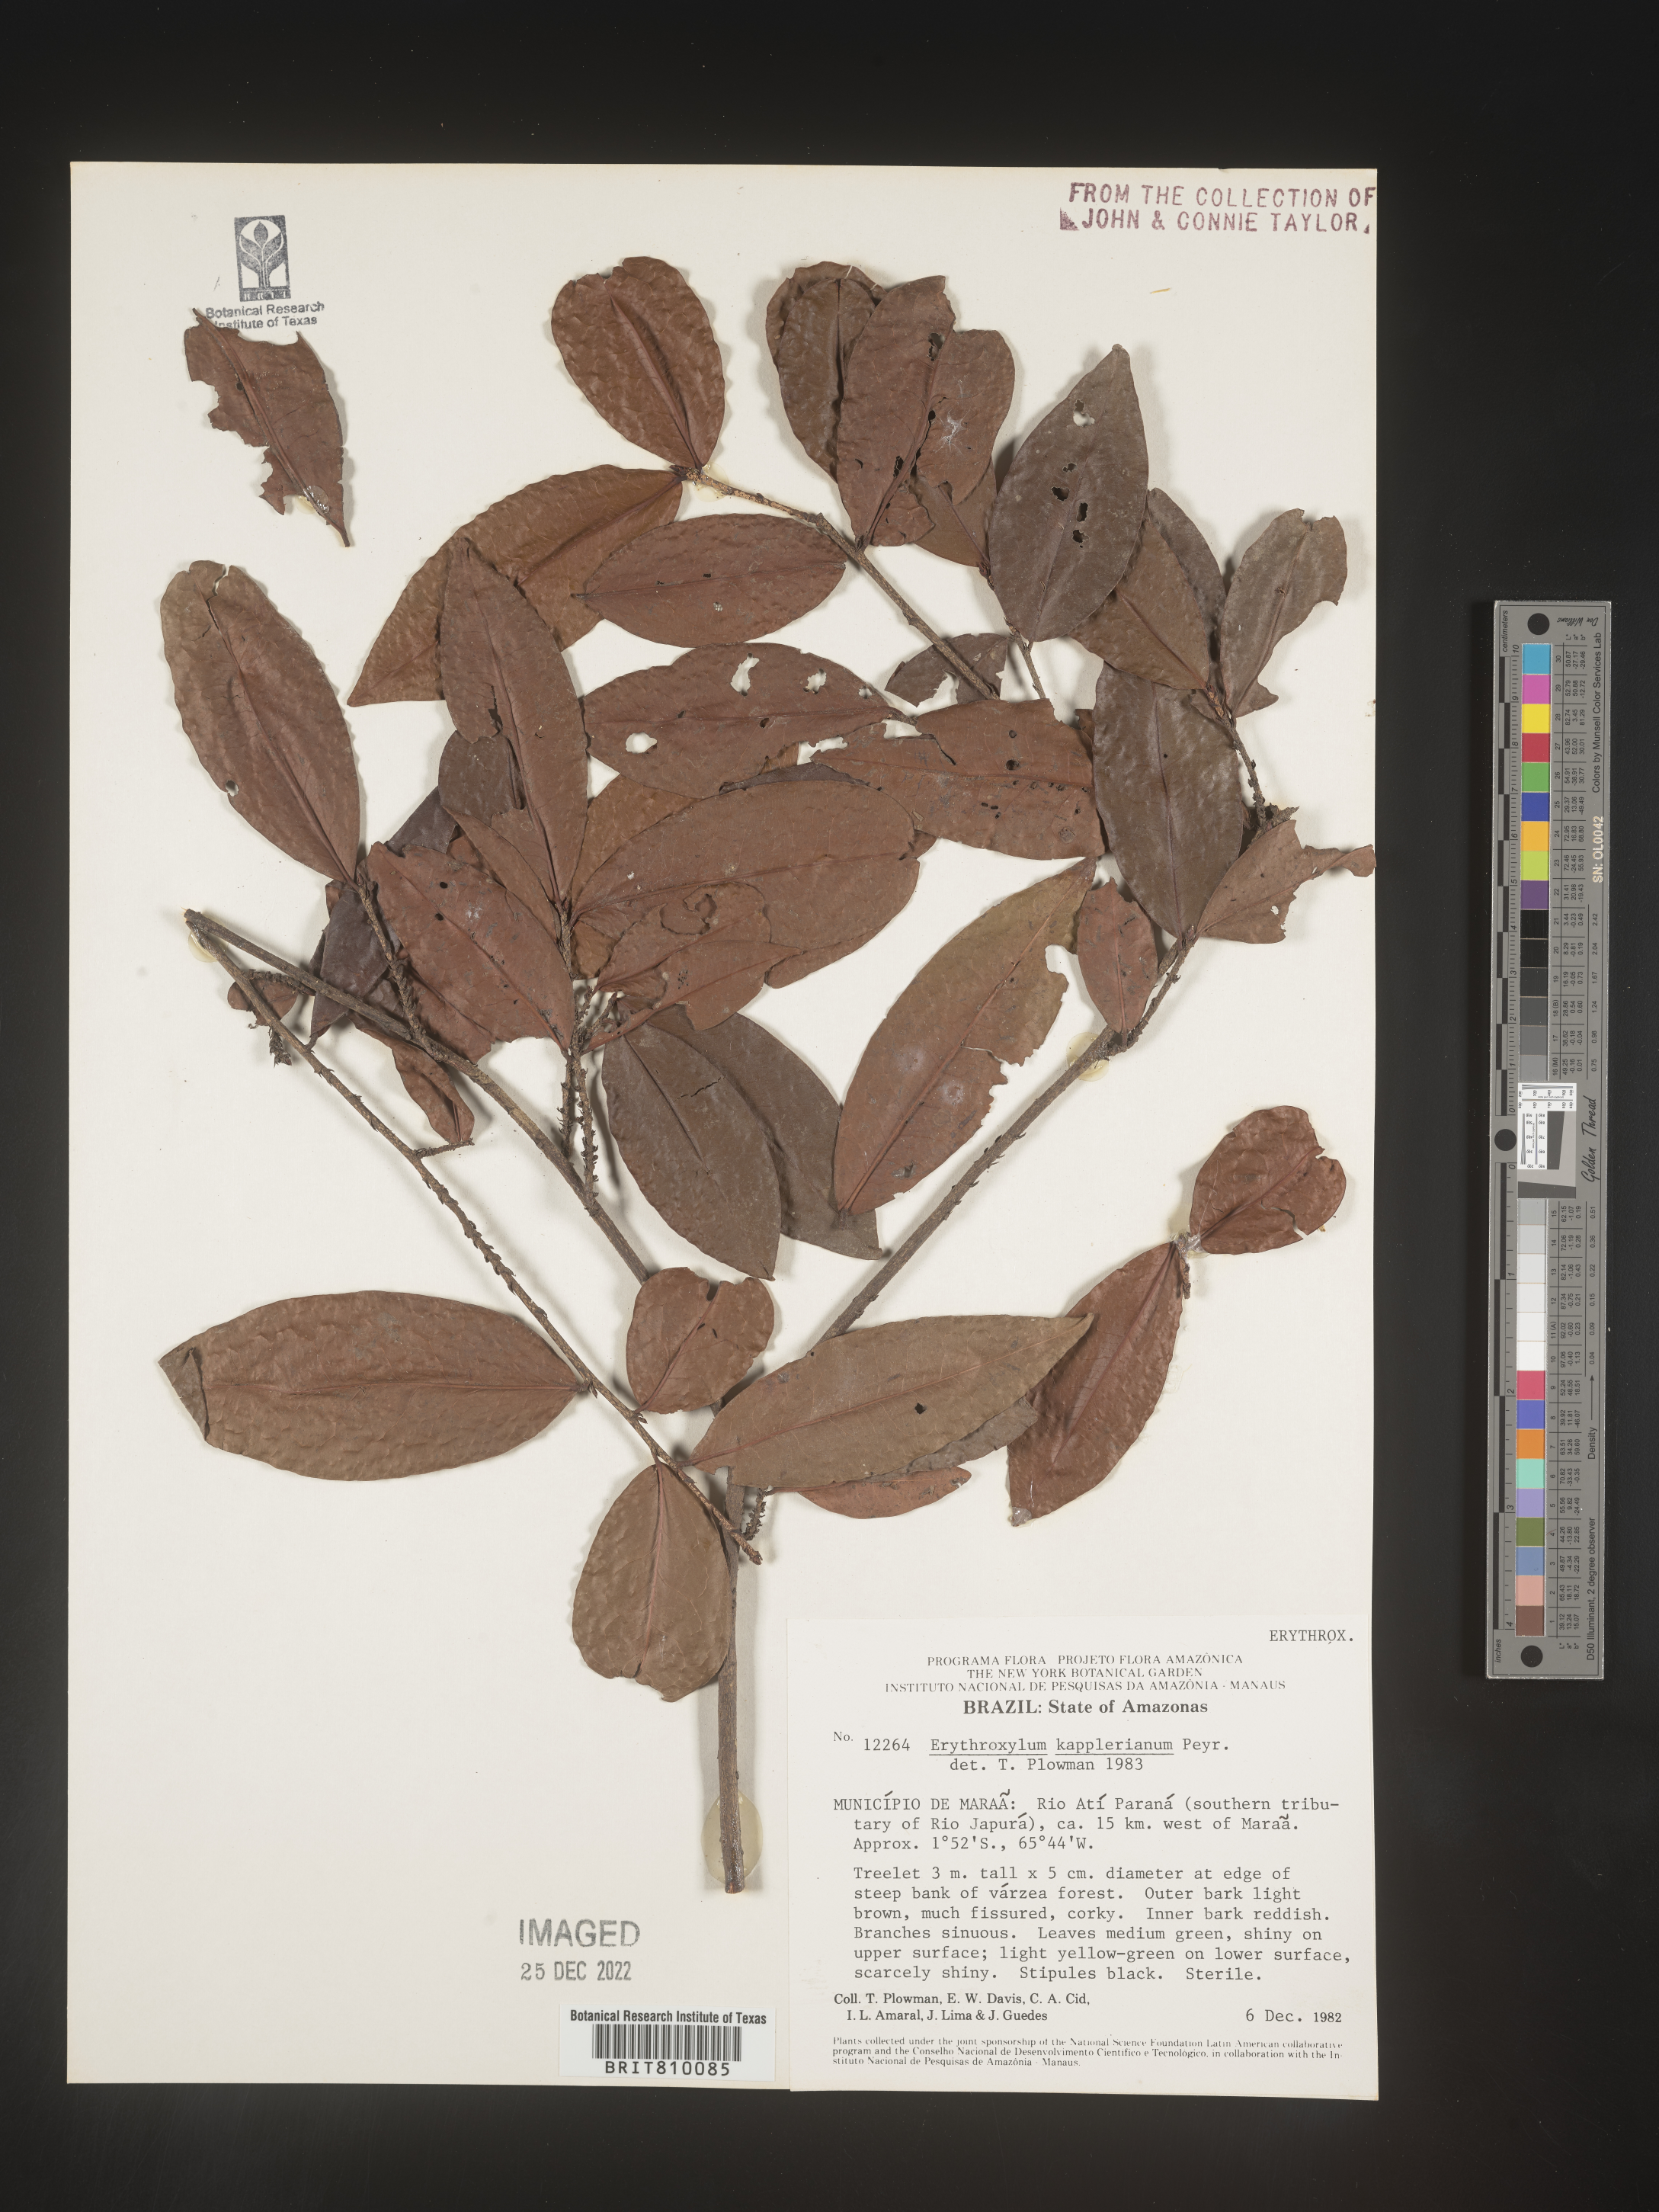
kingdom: Plantae
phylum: Tracheophyta
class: Magnoliopsida
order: Malpighiales
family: Erythroxylaceae
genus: Erythroxylum
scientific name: Erythroxylum
